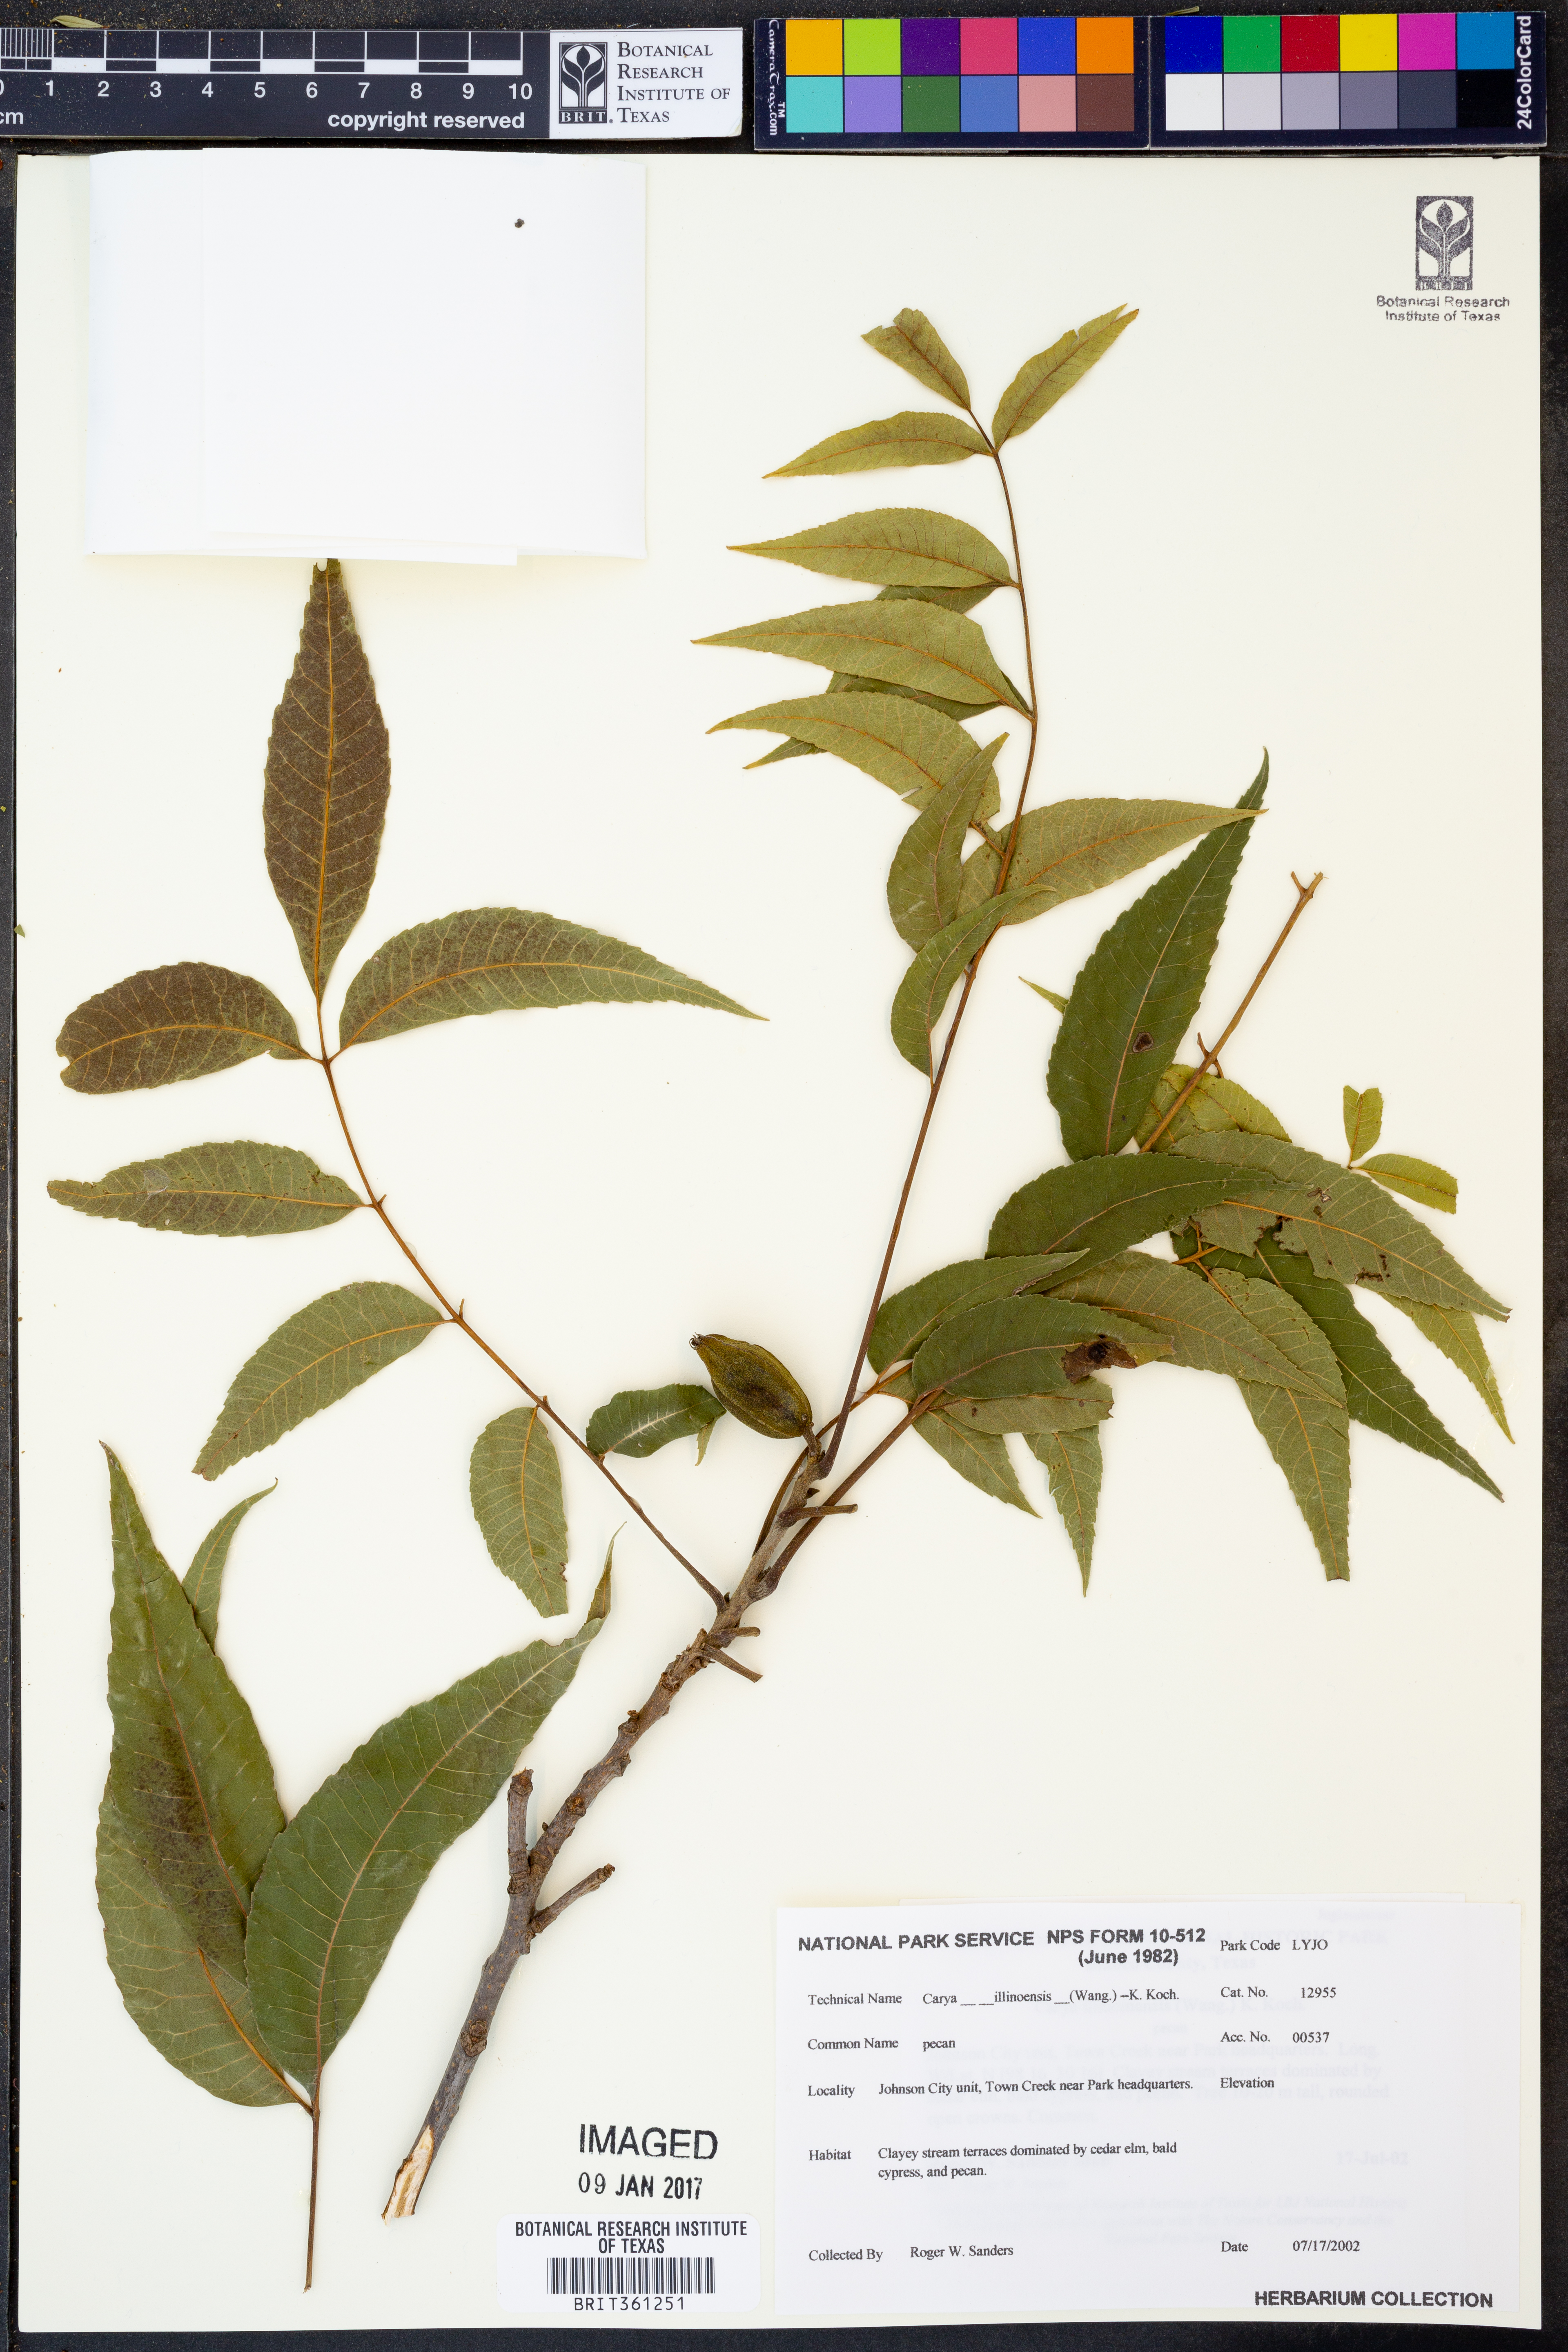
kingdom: Plantae
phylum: Tracheophyta
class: Magnoliopsida
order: Fagales
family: Juglandaceae
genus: Carya
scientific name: Carya illinoinensis
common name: Pecan
